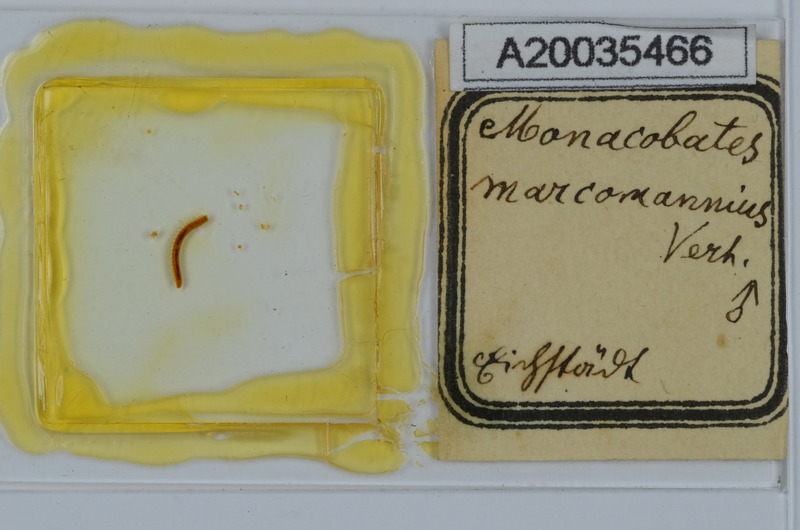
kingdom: Animalia
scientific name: Animalia
